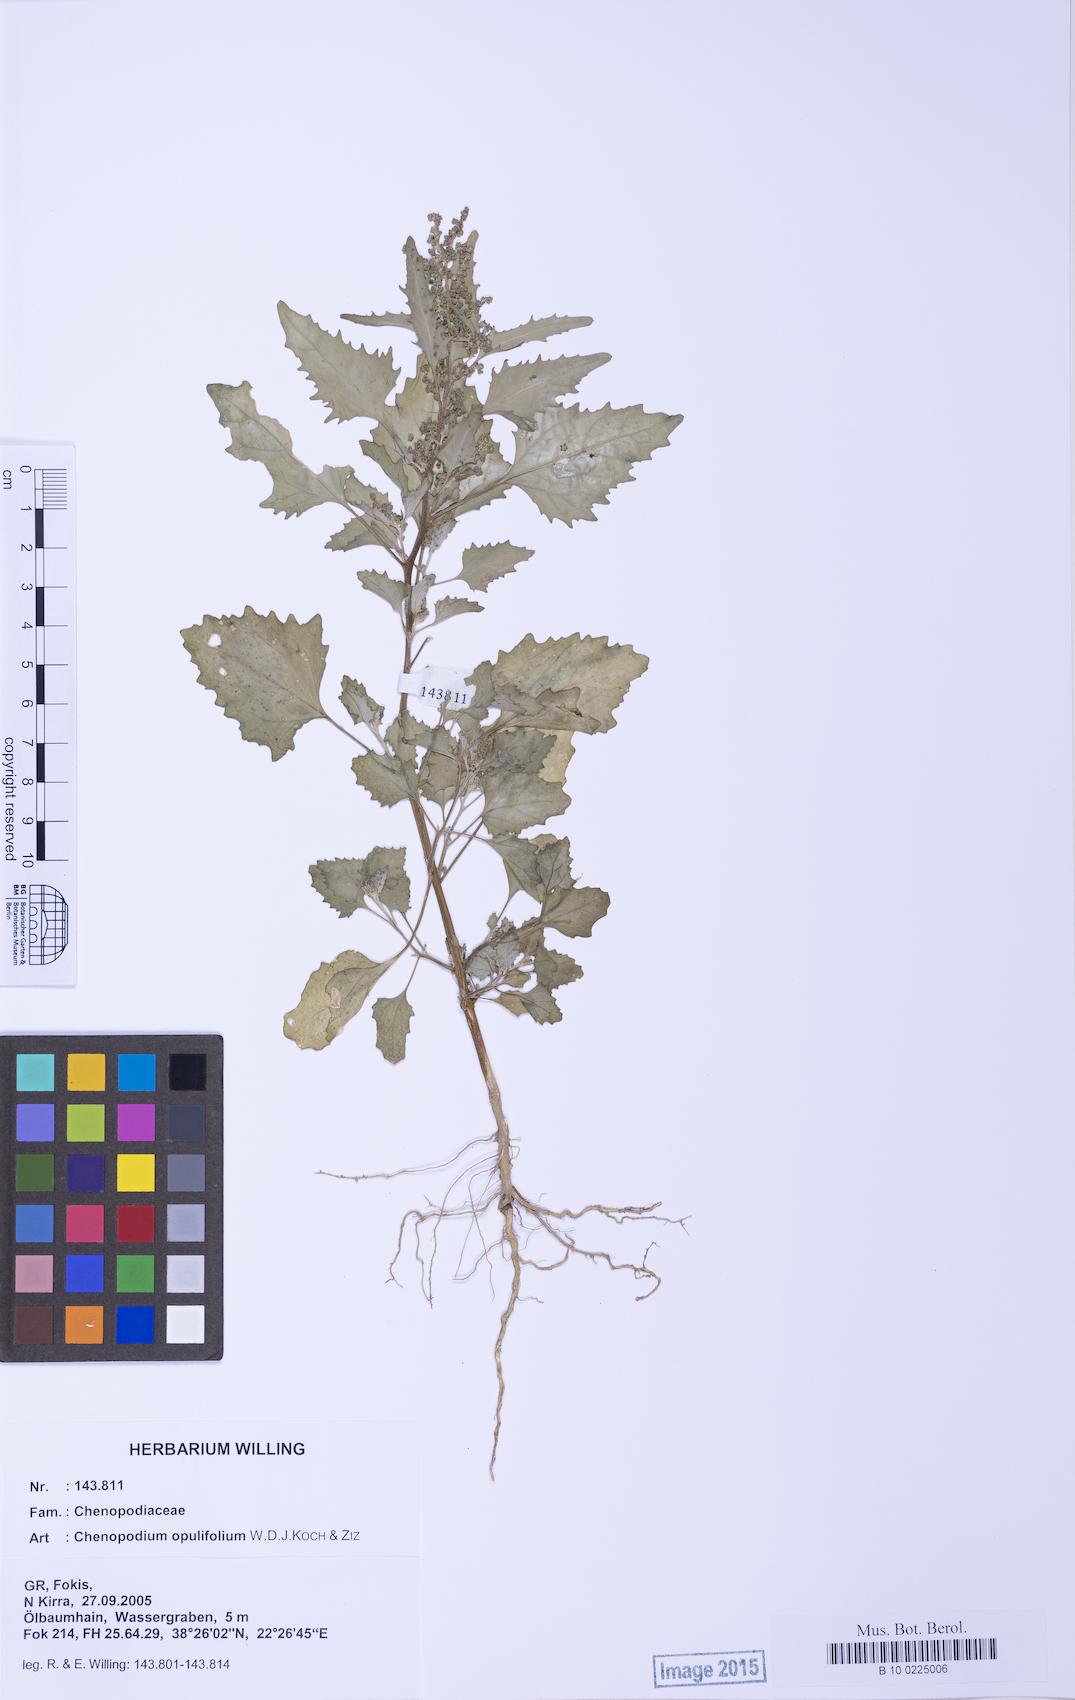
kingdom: Plantae
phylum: Tracheophyta
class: Magnoliopsida
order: Caryophyllales
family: Amaranthaceae
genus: Chenopodiastrum
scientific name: Chenopodiastrum murale
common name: Sowbane
